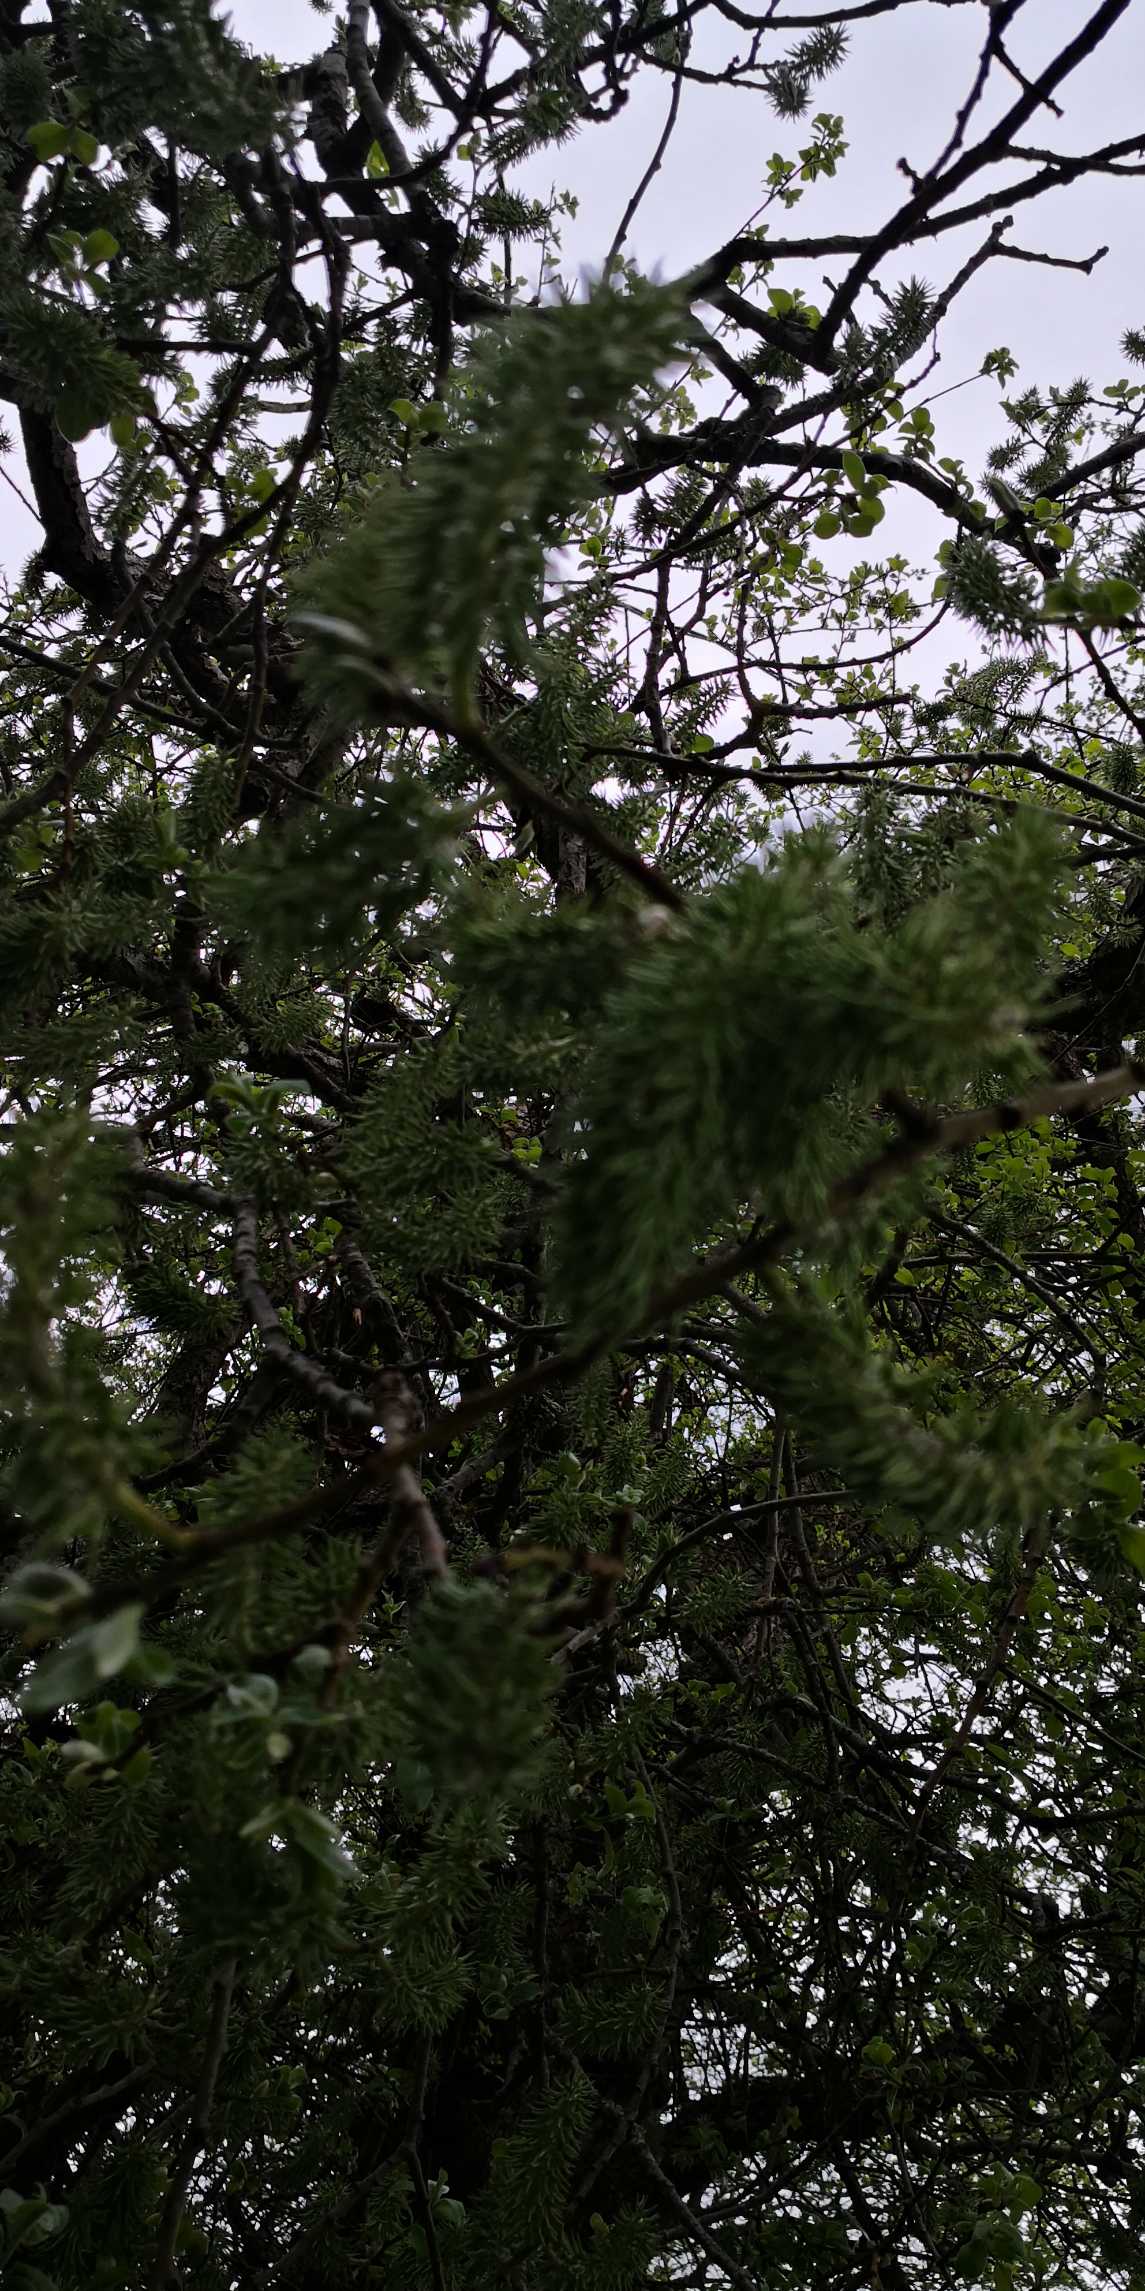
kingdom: Plantae
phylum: Tracheophyta
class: Magnoliopsida
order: Malpighiales
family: Salicaceae
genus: Salix
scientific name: Salix caprea
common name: Selje-pil
